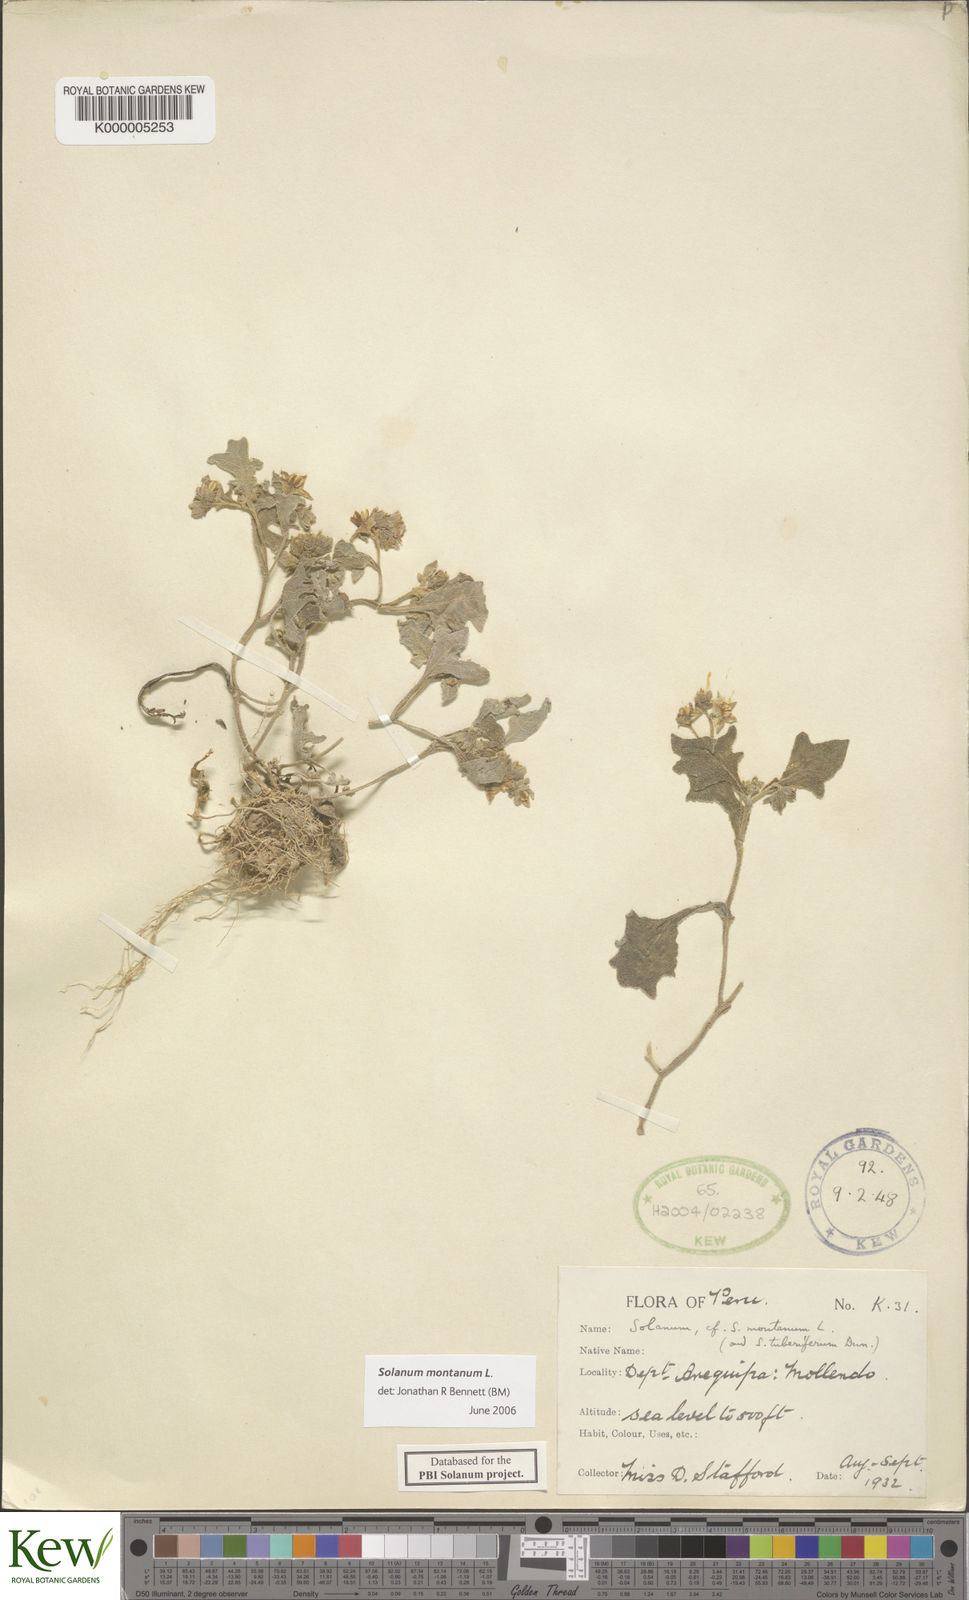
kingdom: Plantae
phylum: Tracheophyta
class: Magnoliopsida
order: Solanales
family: Solanaceae
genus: Solanum
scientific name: Solanum montanum
